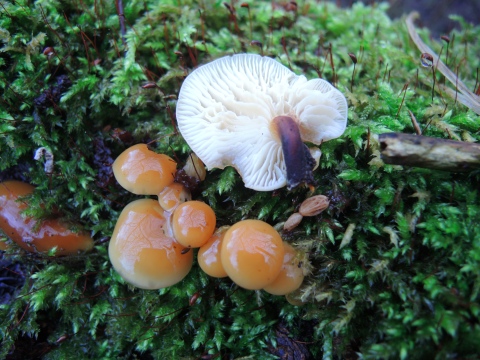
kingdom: Fungi
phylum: Basidiomycota
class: Agaricomycetes
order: Agaricales
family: Physalacriaceae
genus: Flammulina
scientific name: Flammulina elastica
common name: pile-fløjlsfod
